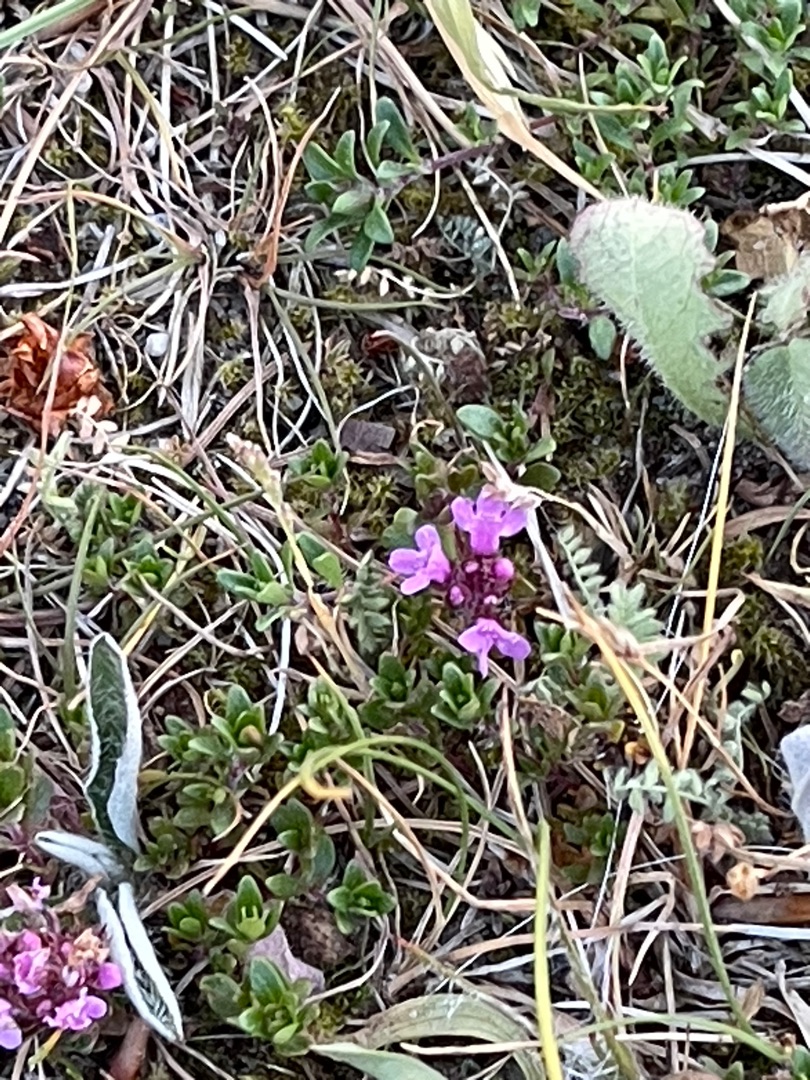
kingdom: Plantae
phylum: Tracheophyta
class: Magnoliopsida
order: Lamiales
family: Lamiaceae
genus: Thymus
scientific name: Thymus serpyllum
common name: Smalbladet timian
